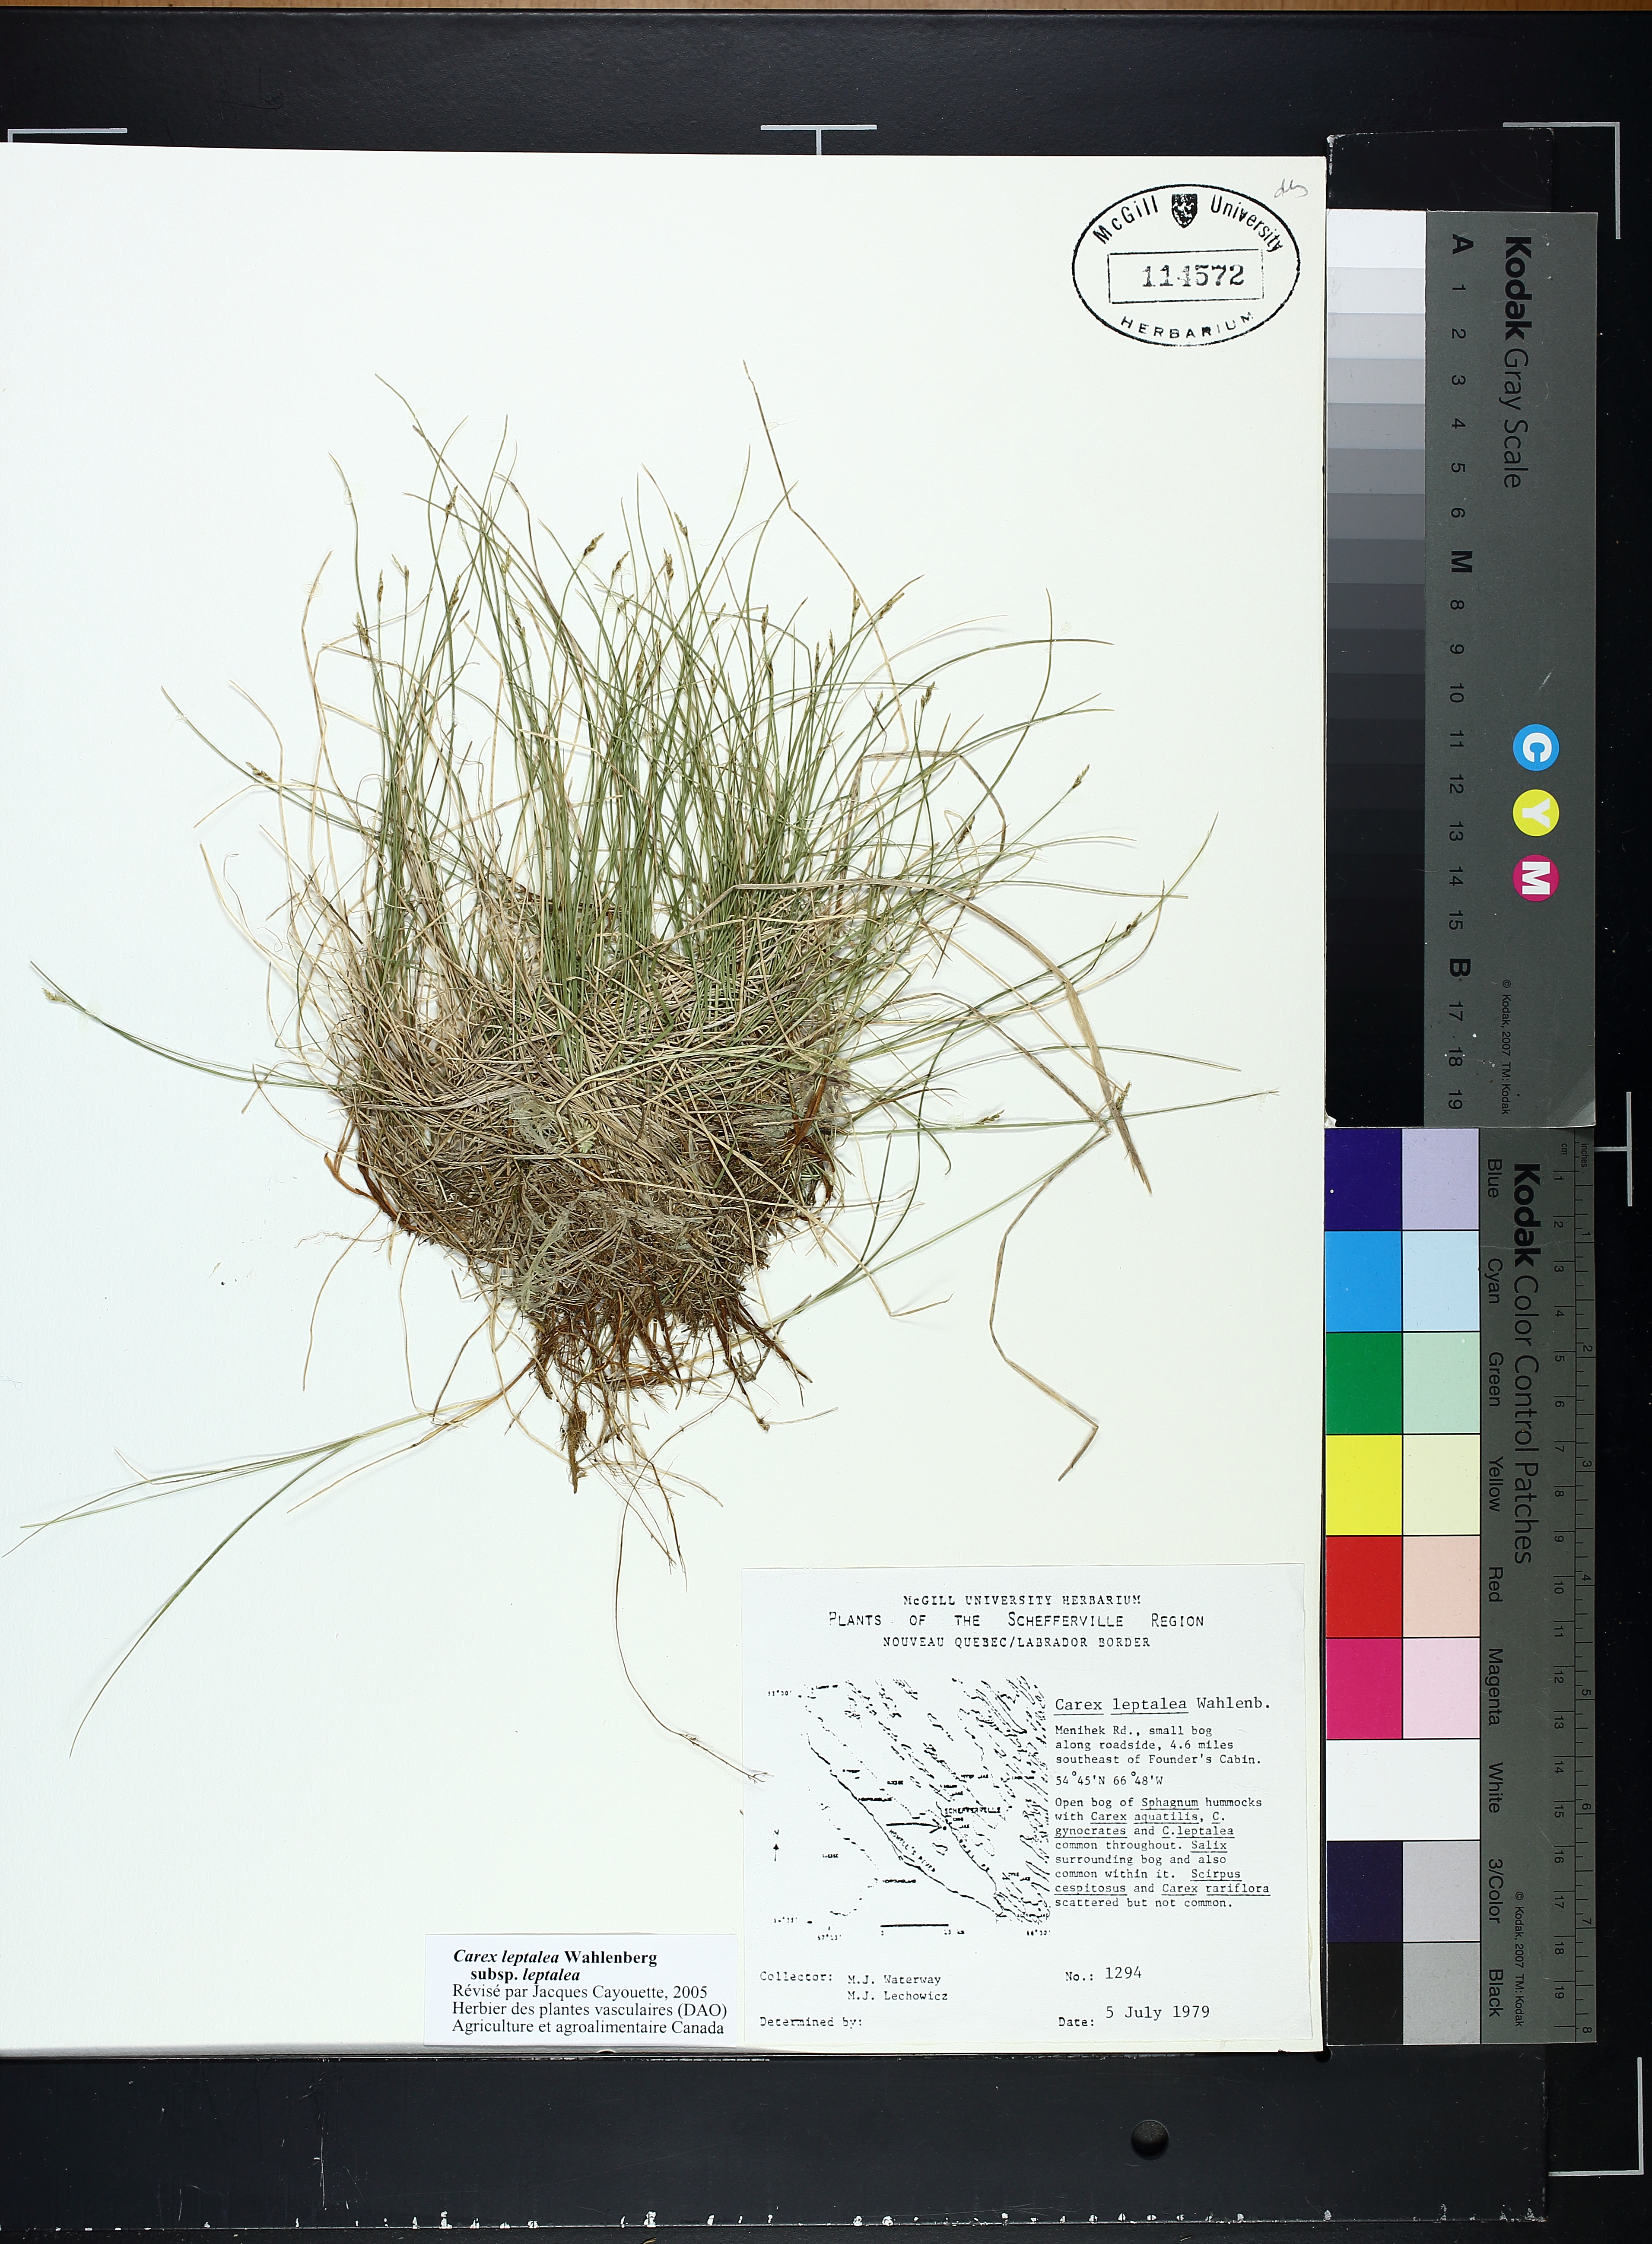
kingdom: Plantae
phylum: Tracheophyta
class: Liliopsida
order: Poales
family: Cyperaceae
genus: Carex
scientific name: Carex leptalea
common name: Bristly-stalked sedge
